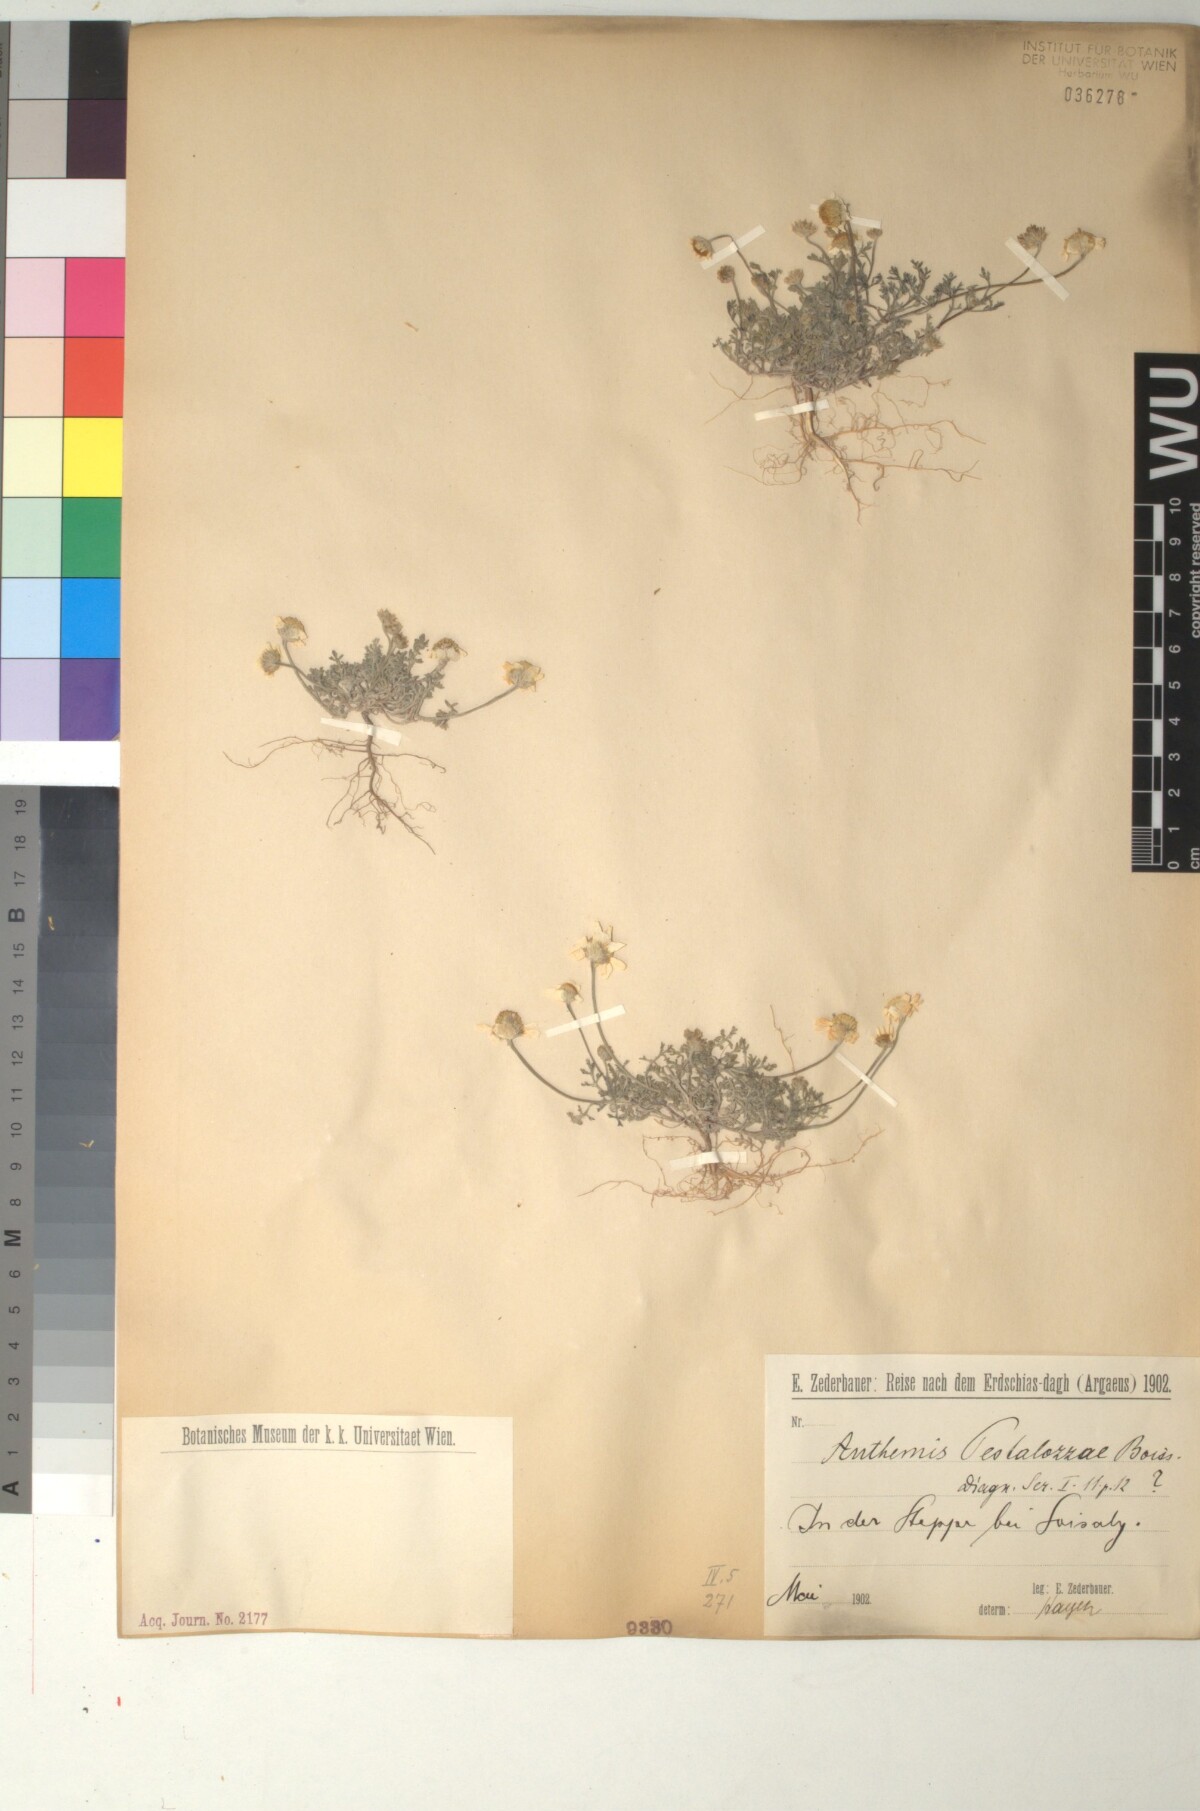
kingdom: Plantae
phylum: Tracheophyta
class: Magnoliopsida
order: Asterales
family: Asteraceae
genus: Anthemis
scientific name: Anthemis cretica
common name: Mountain dog-daisy
